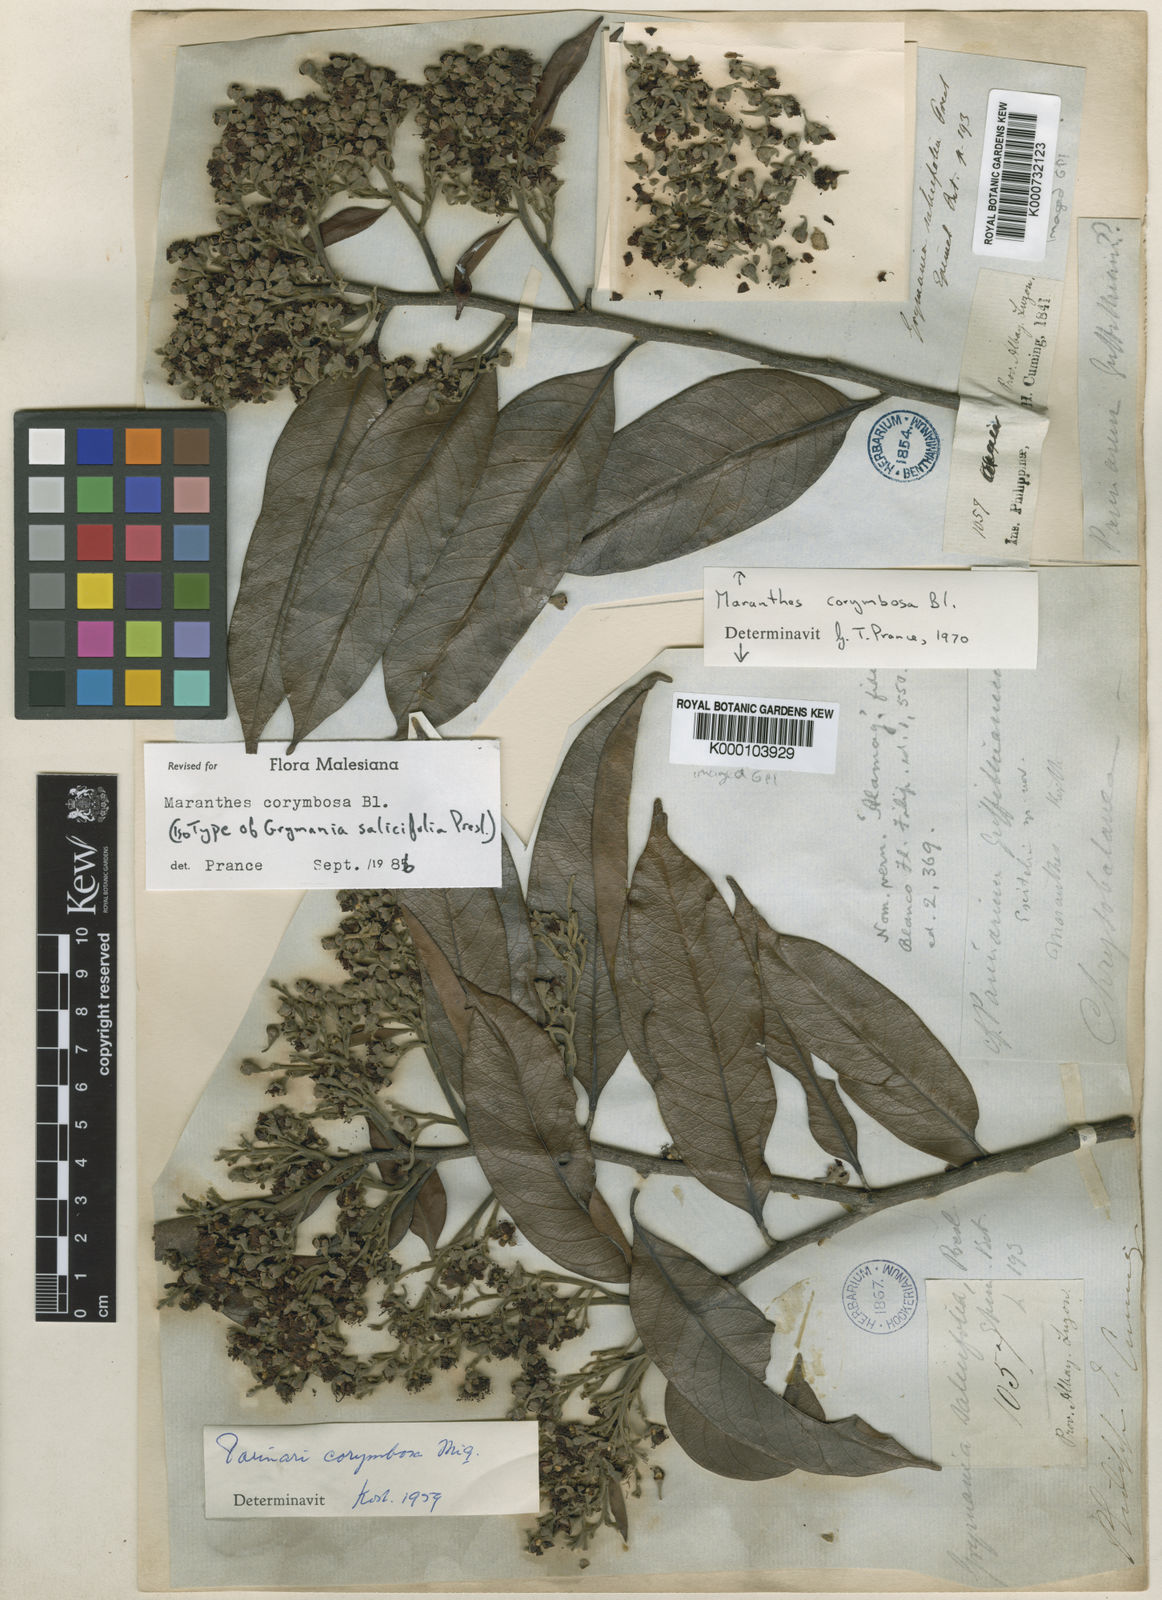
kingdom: Plantae
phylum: Tracheophyta
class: Magnoliopsida
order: Malpighiales
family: Chrysobalanaceae
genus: Maranthes
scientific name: Maranthes corymbosa
